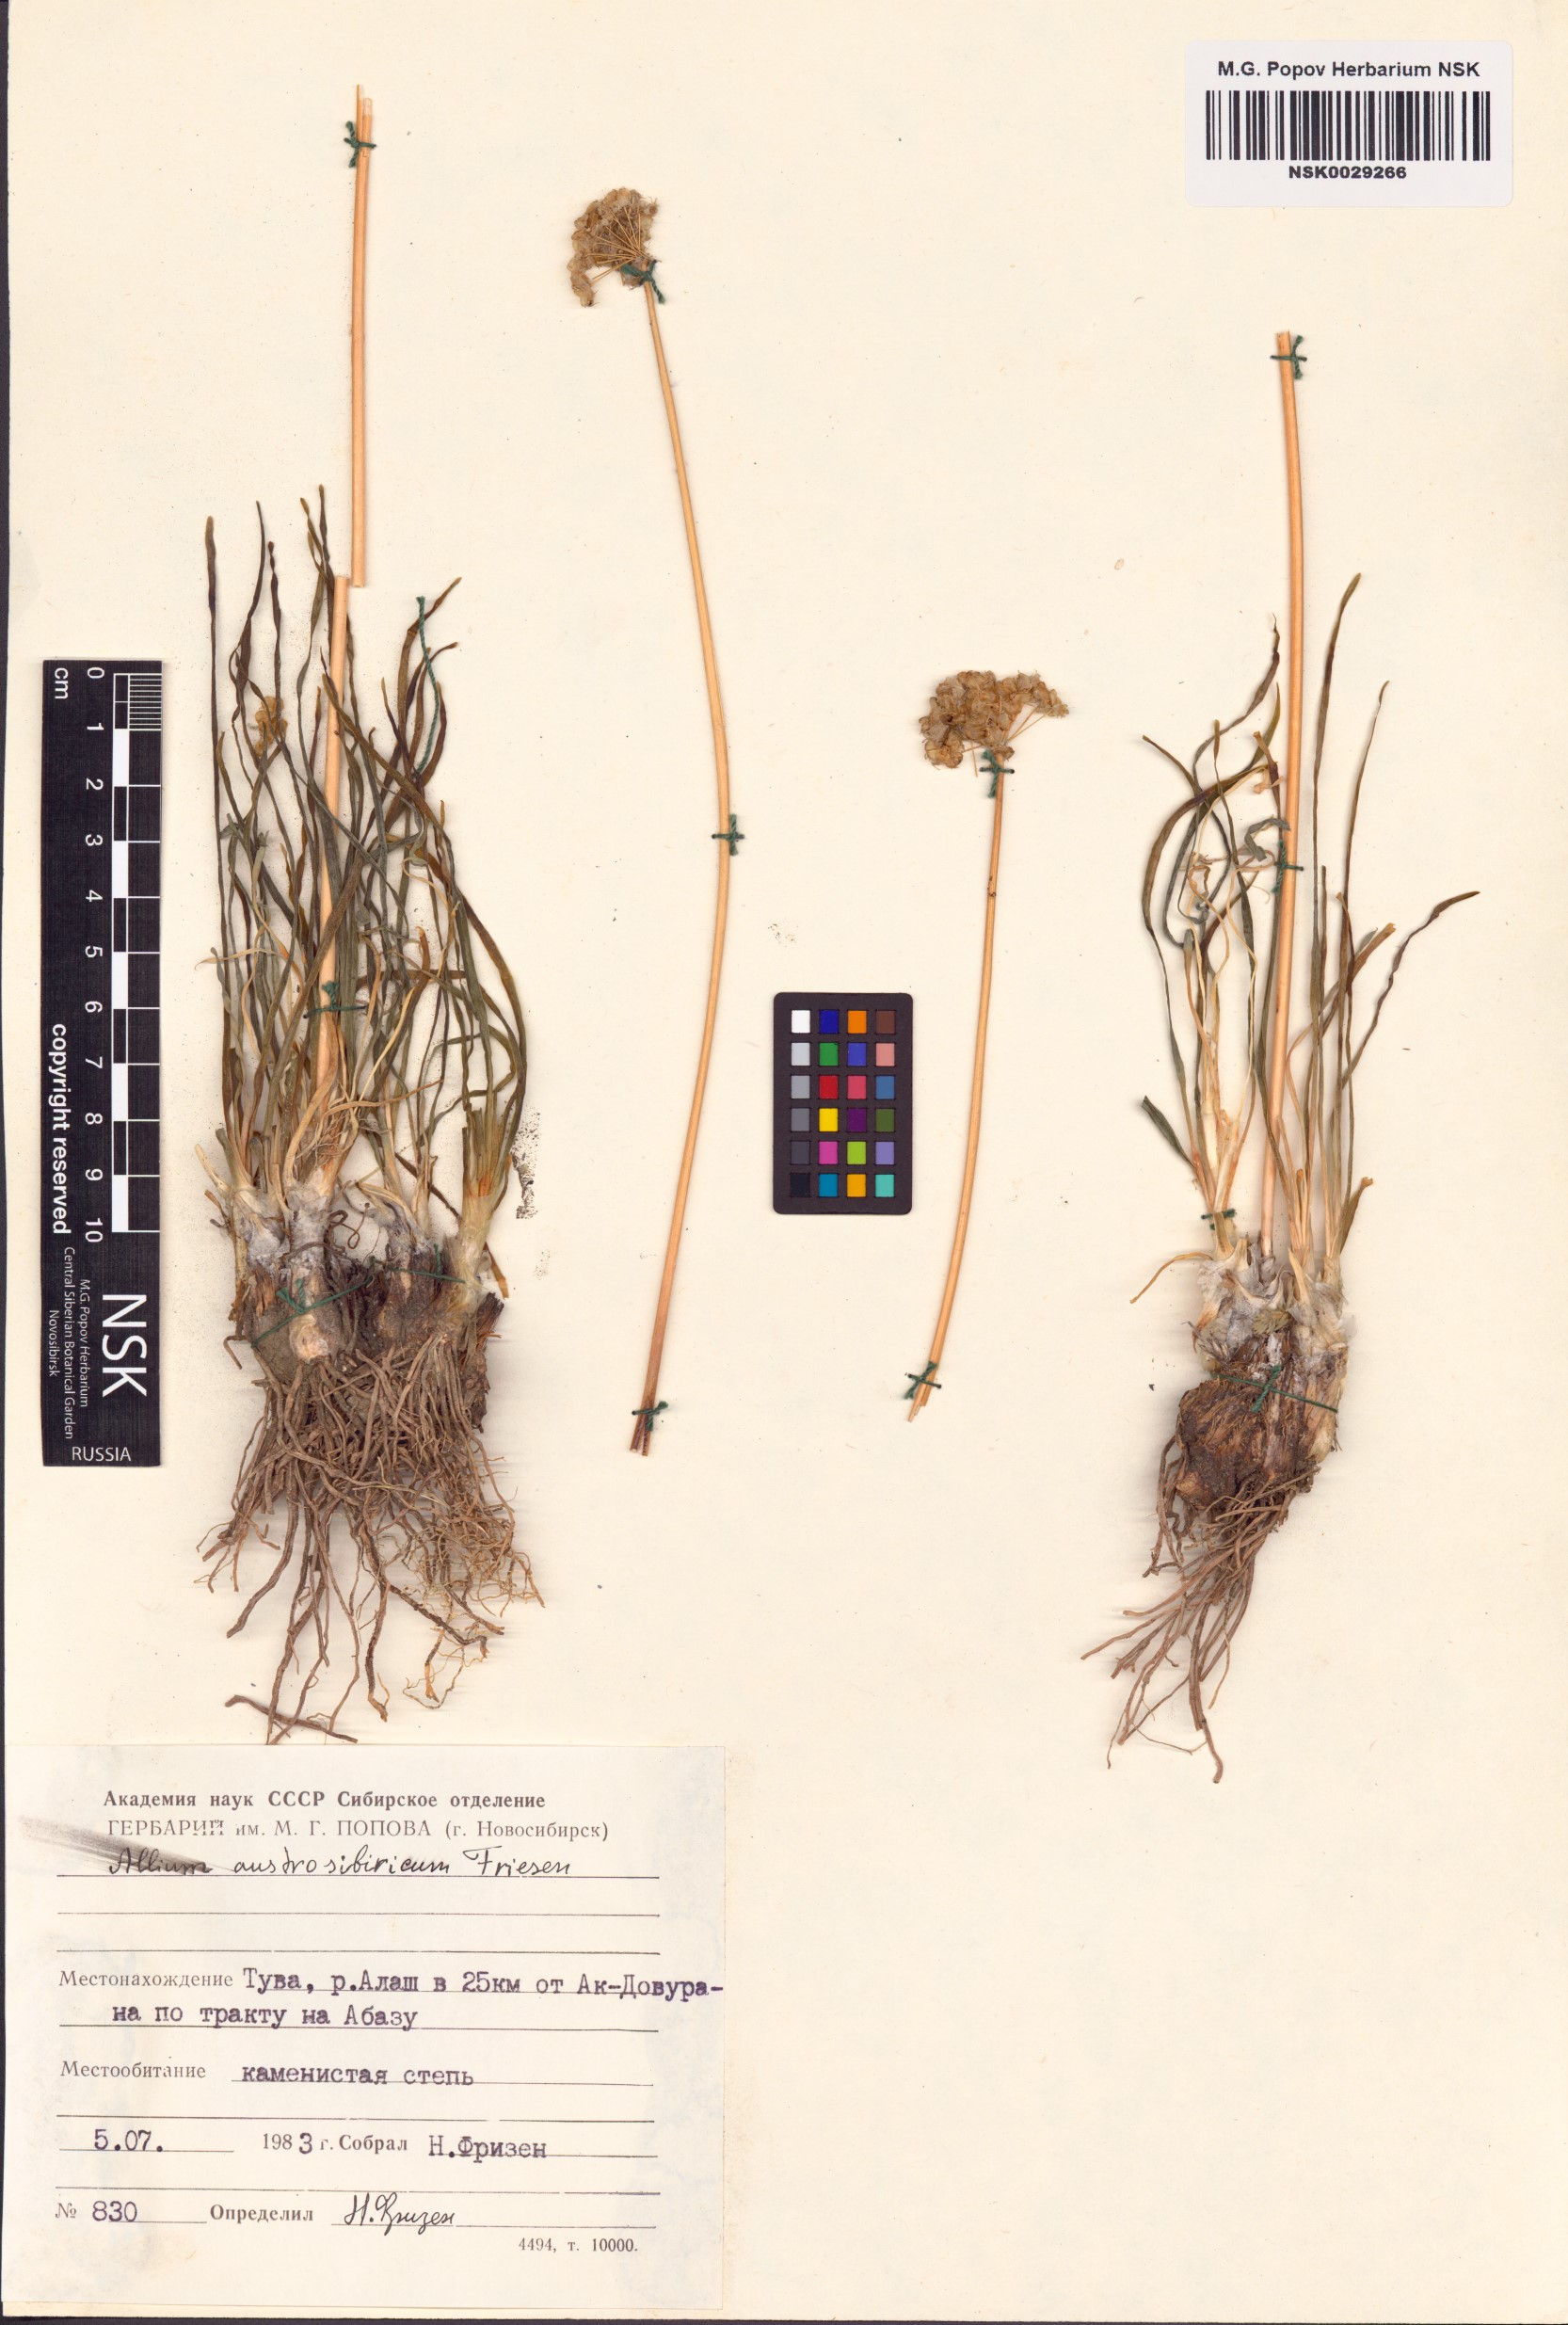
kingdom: Plantae
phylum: Tracheophyta
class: Liliopsida
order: Asparagales
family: Amaryllidaceae
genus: Allium
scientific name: Allium austrosibiricum
